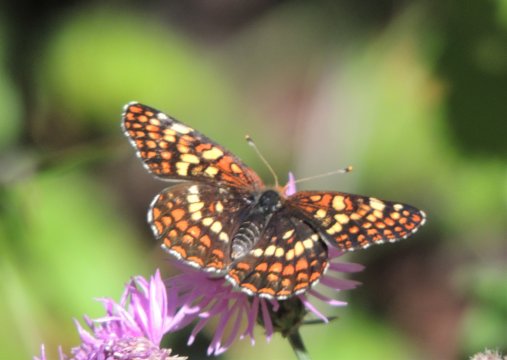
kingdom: Animalia
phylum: Arthropoda
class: Insecta
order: Lepidoptera
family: Nymphalidae
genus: Chlosyne
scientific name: Chlosyne palla
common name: Northern Checkerspot
